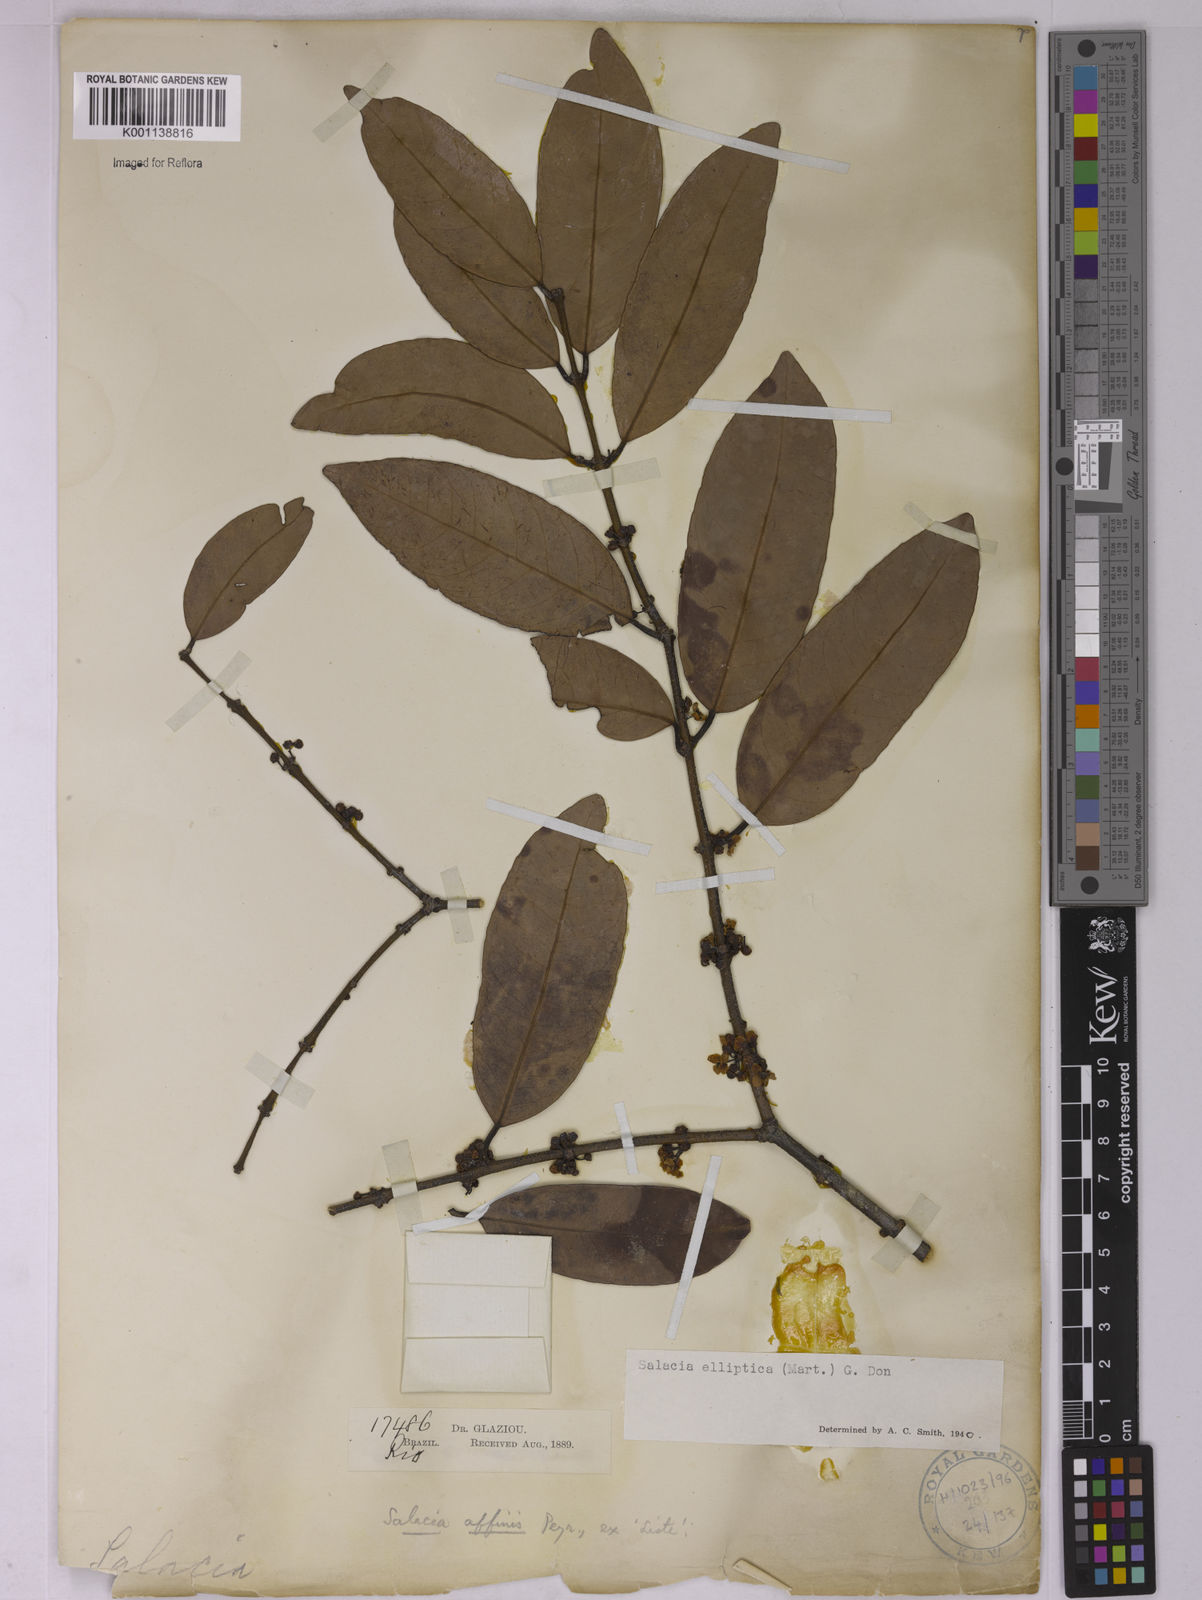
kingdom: Plantae
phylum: Tracheophyta
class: Magnoliopsida
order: Celastrales
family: Celastraceae
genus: Salacia
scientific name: Salacia elliptica
